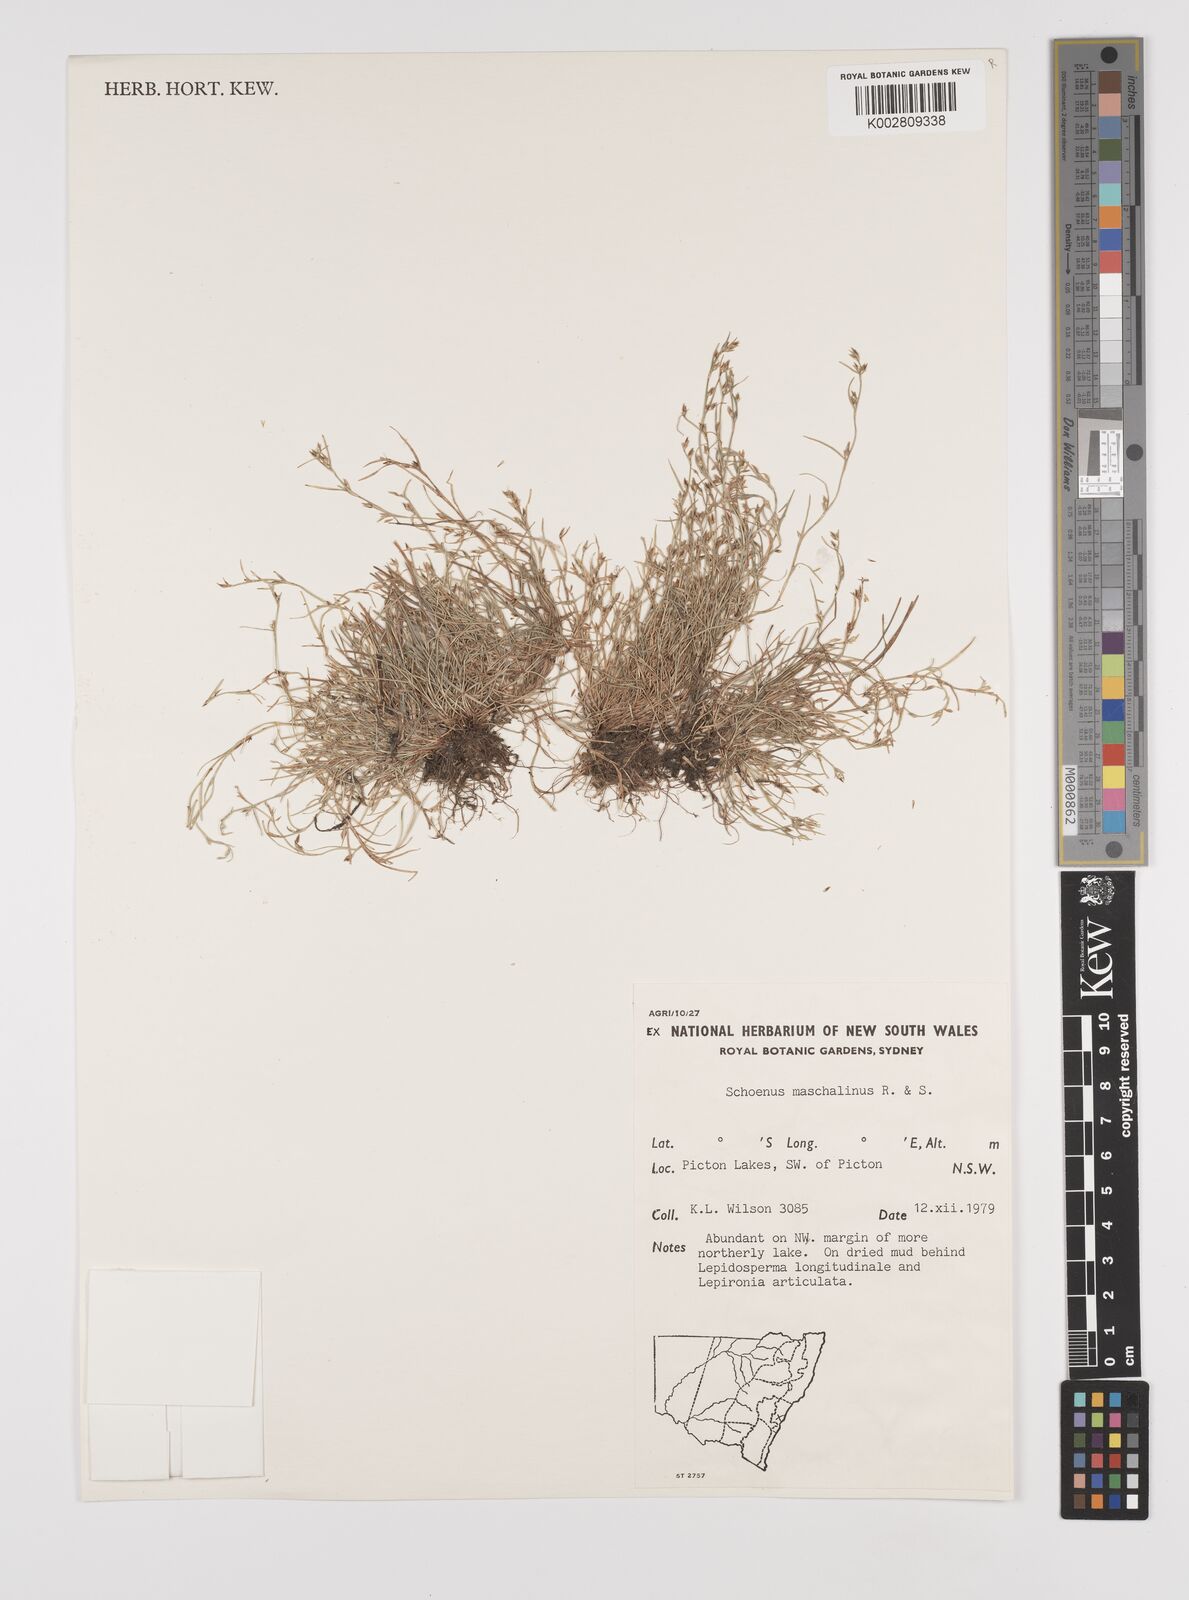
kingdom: Plantae
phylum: Tracheophyta
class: Liliopsida
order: Poales
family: Cyperaceae
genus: Schoenus
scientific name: Schoenus maschalinus
